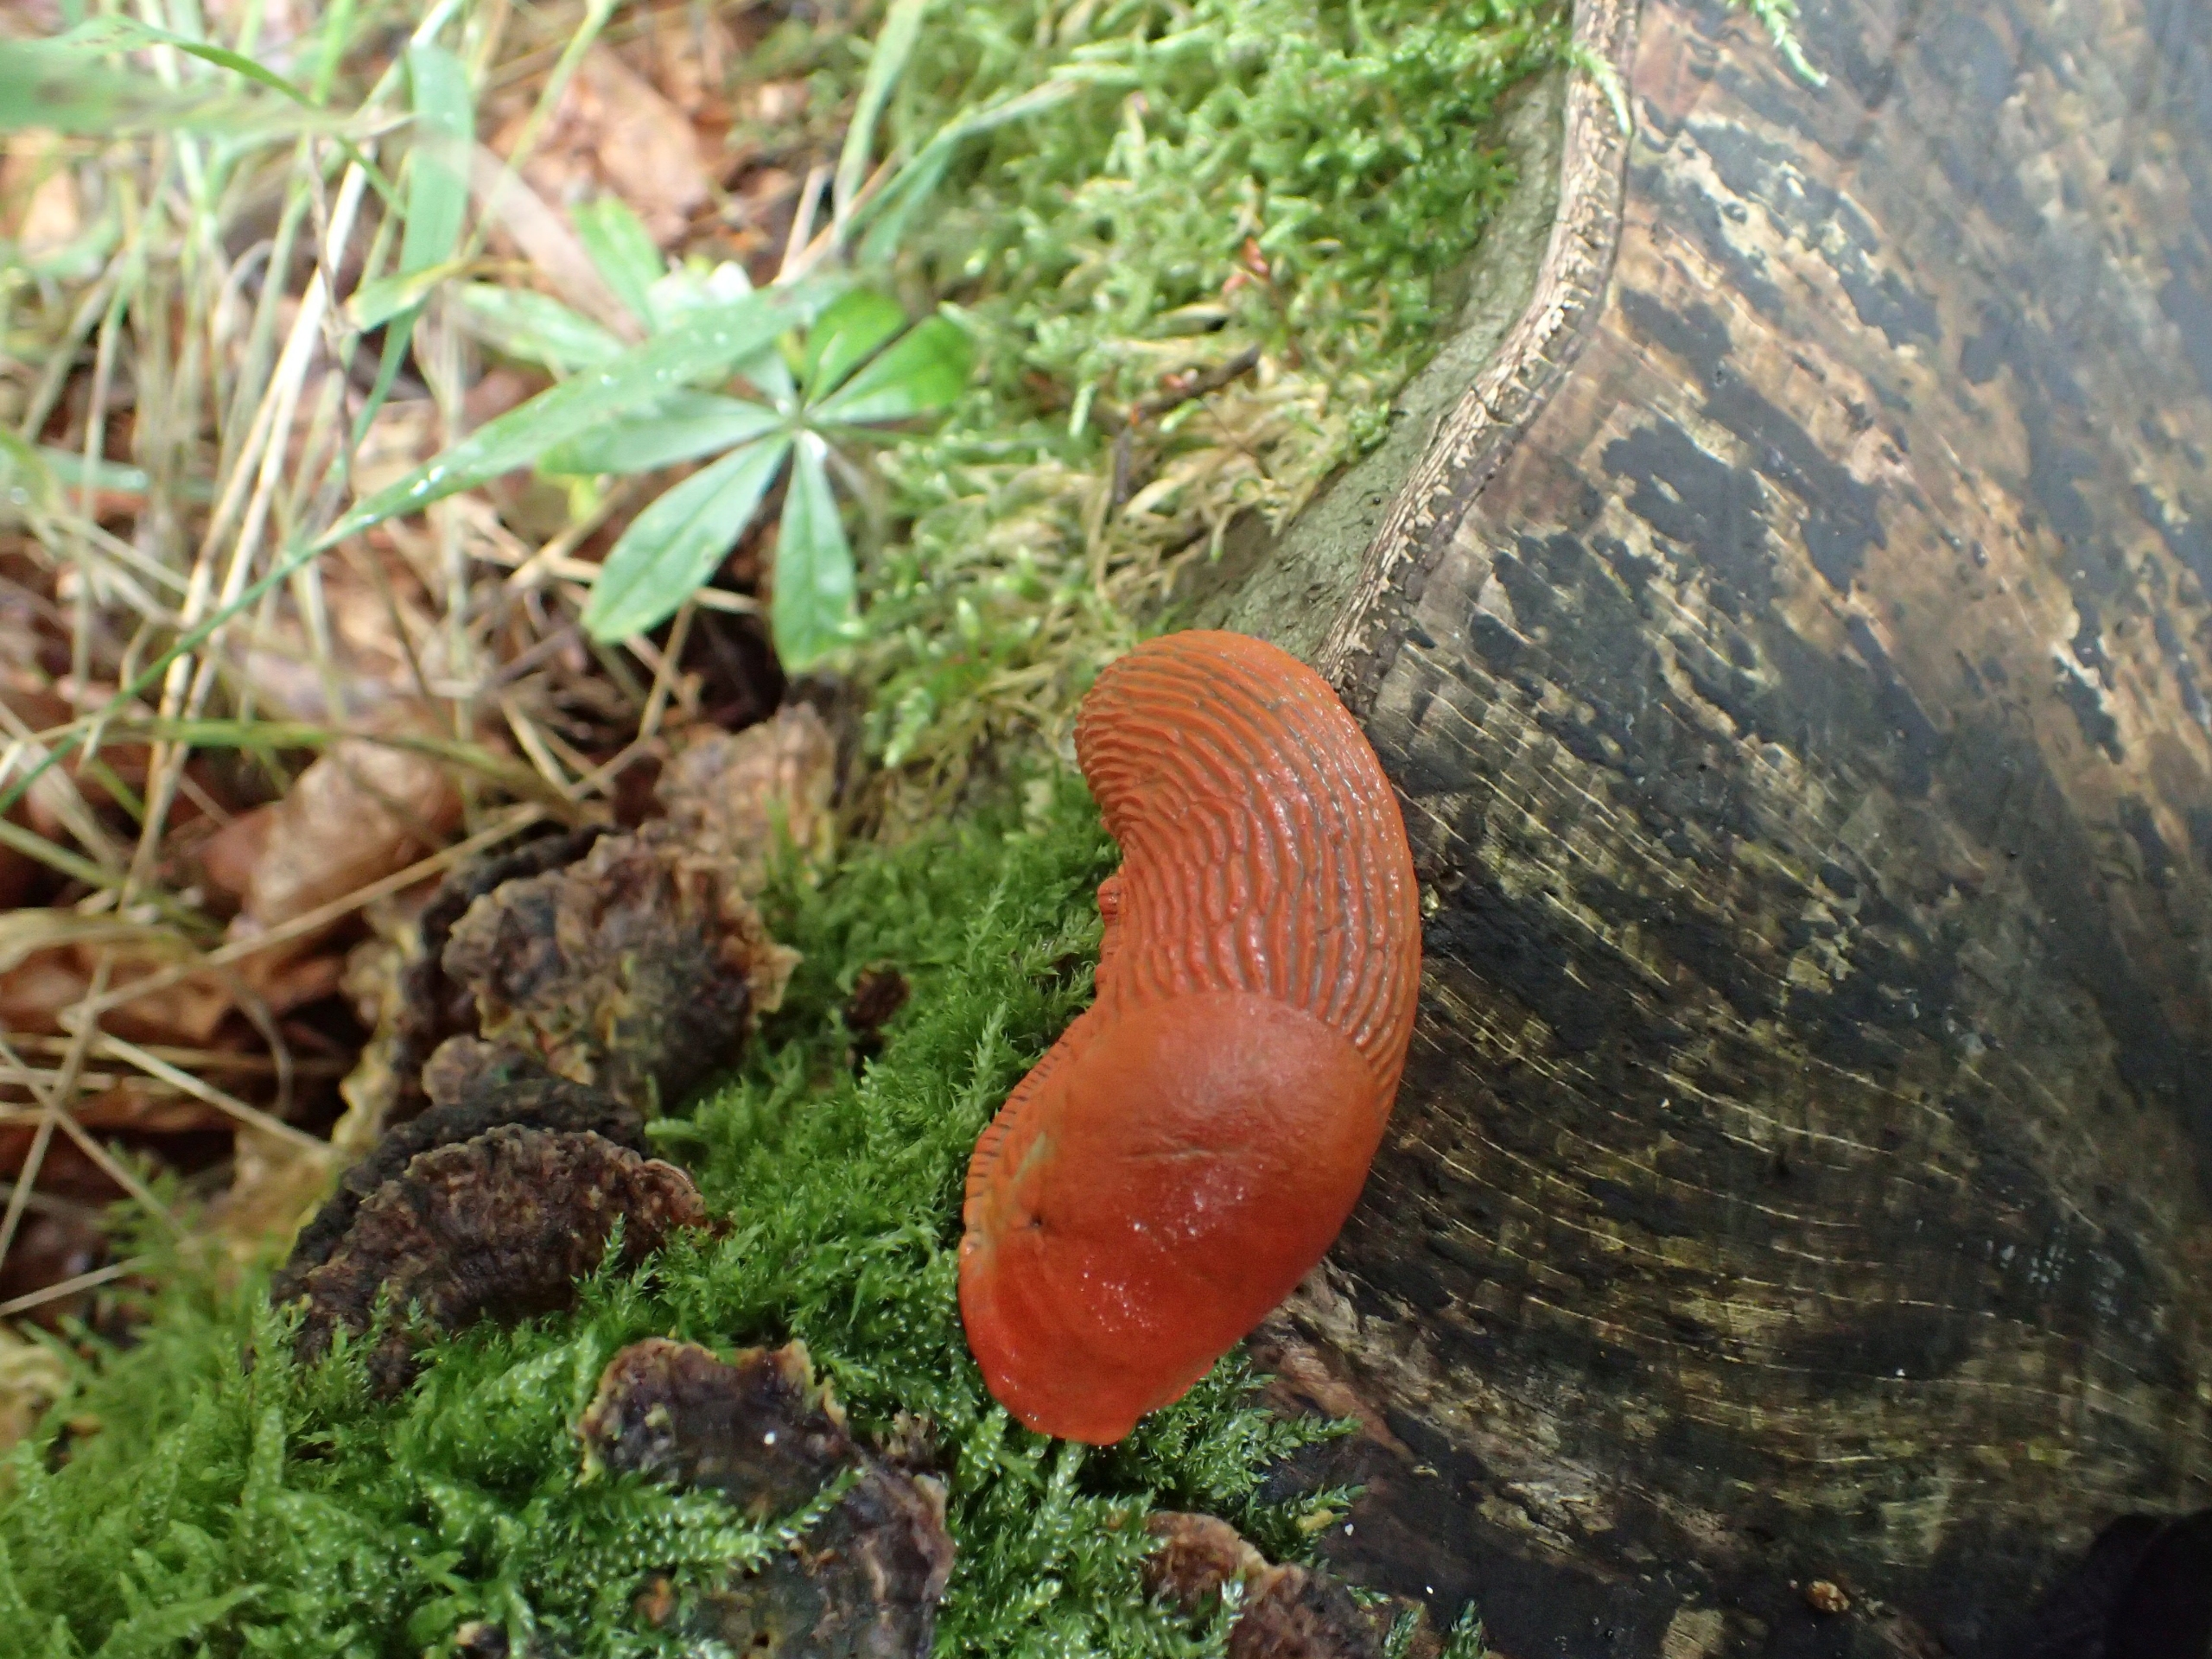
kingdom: Animalia
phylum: Mollusca
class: Gastropoda
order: Stylommatophora
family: Arionidae
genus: Arion
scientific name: Arion rufus
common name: Rød skovsnegl
